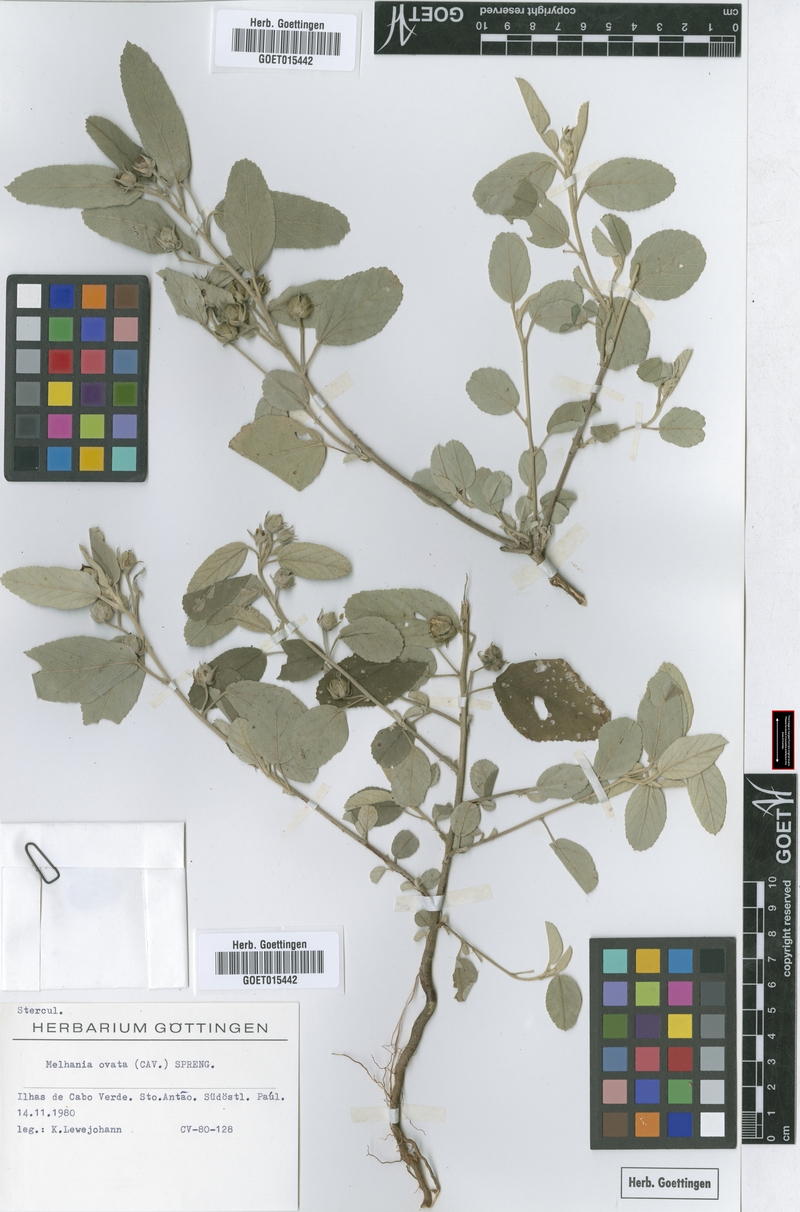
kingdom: Plantae
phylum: Tracheophyta
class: Magnoliopsida
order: Malvales
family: Malvaceae
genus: Melhania
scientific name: Melhania ovata
